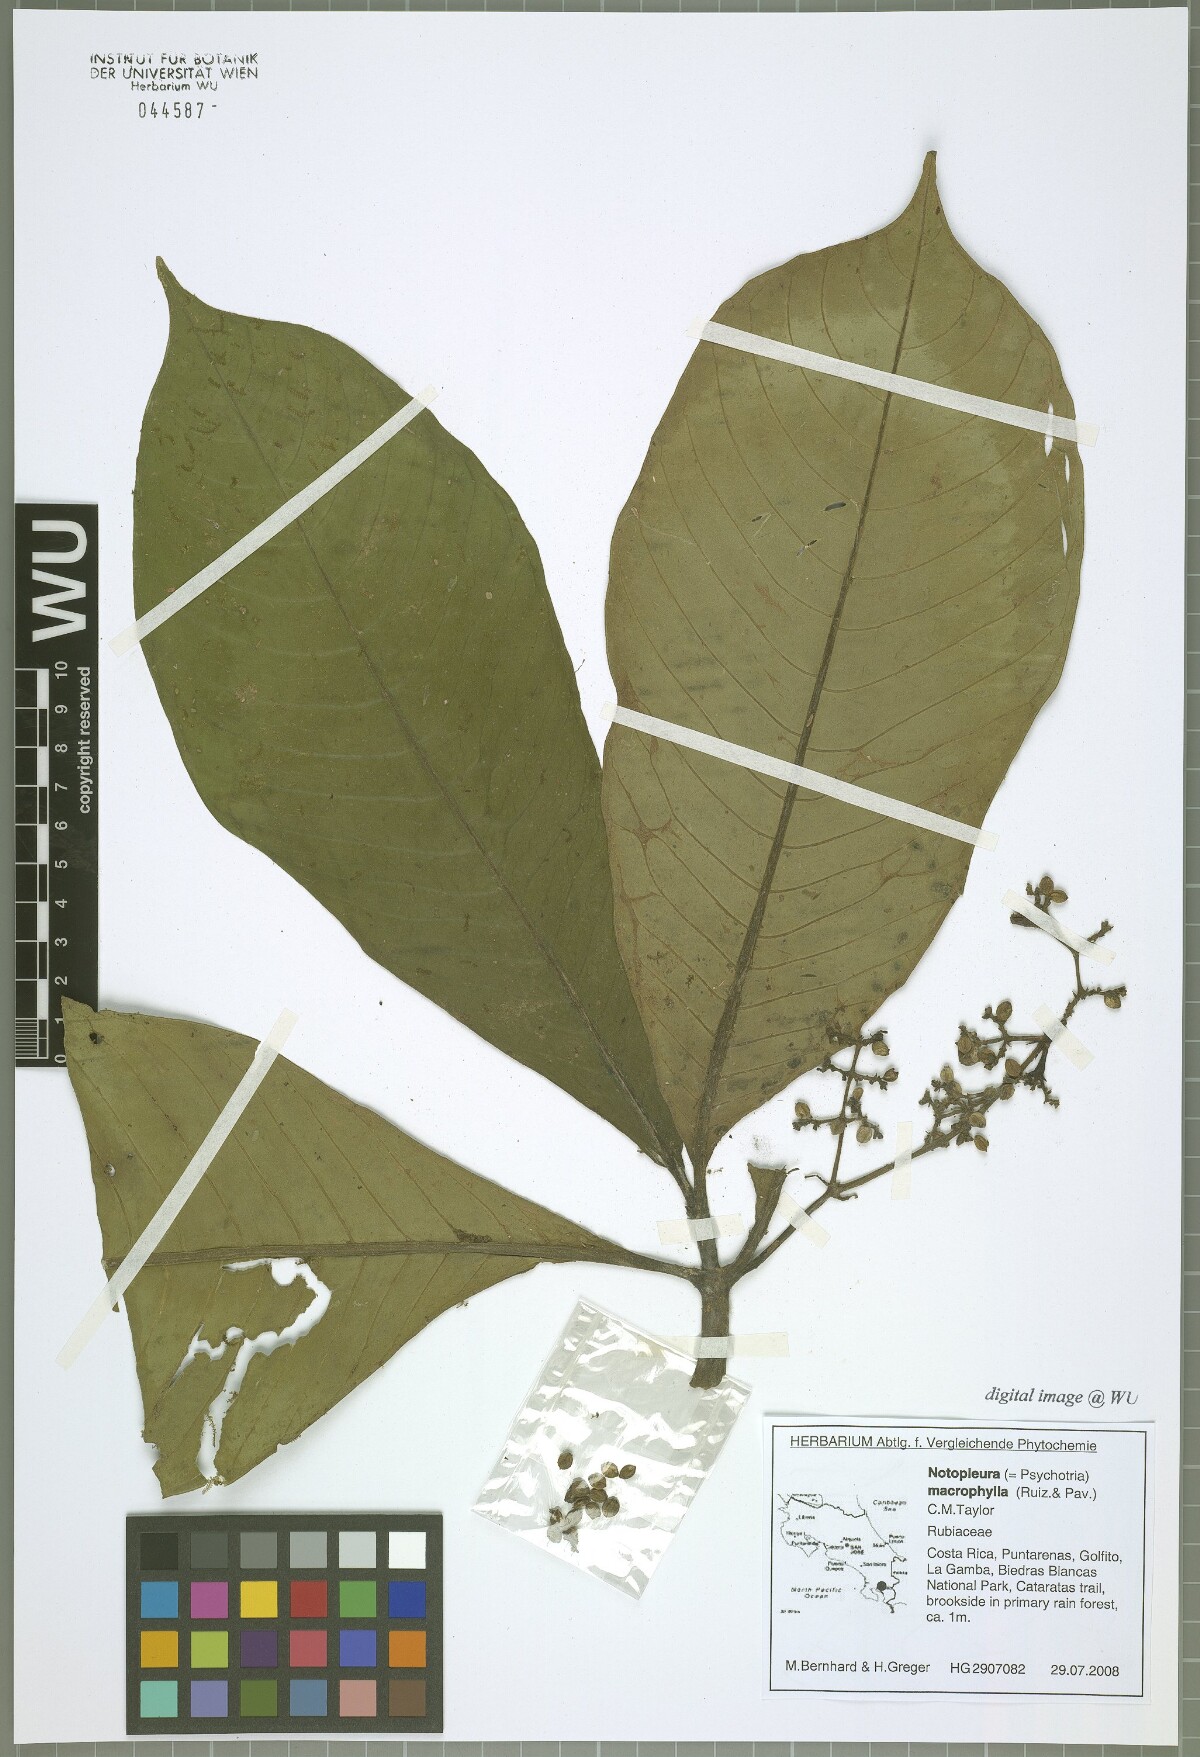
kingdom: Plantae
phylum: Tracheophyta
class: Magnoliopsida
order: Gentianales
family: Rubiaceae
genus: Notopleura
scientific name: Notopleura capacifolia
